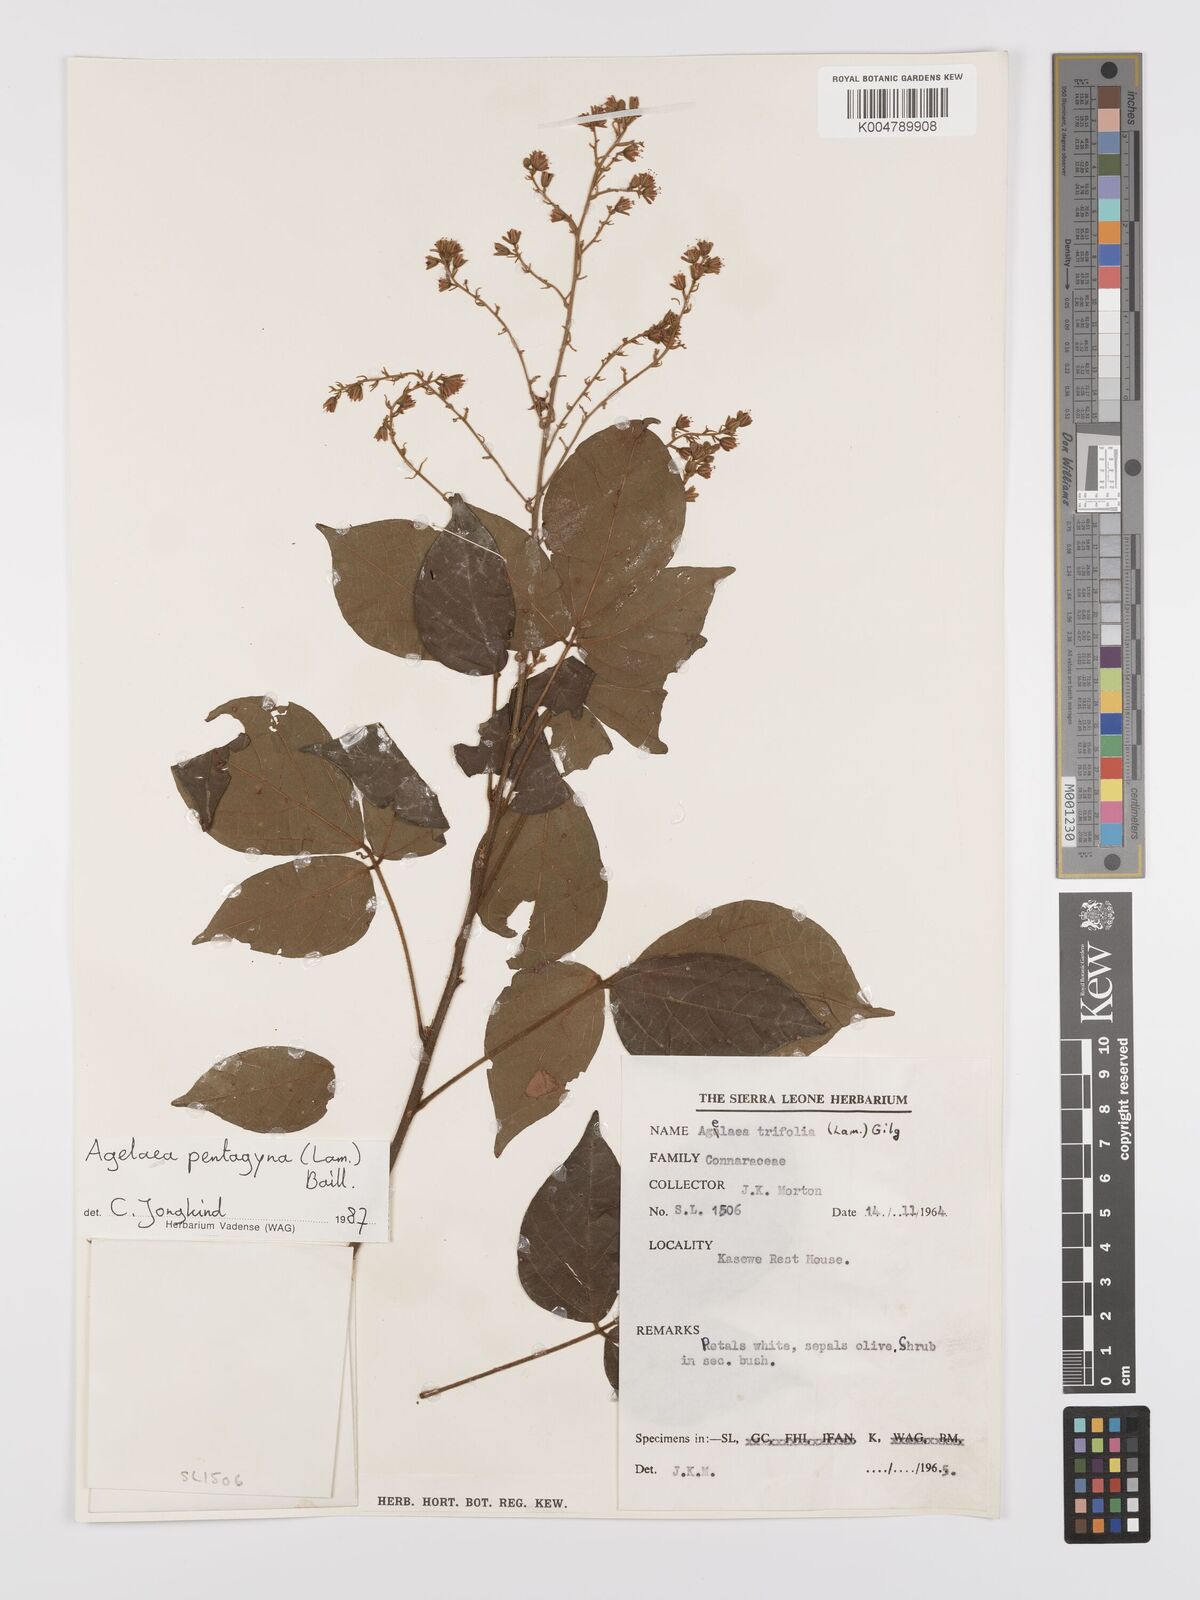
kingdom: Plantae
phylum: Tracheophyta
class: Magnoliopsida
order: Oxalidales
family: Connaraceae
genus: Agelaea
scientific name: Agelaea pentagyna
